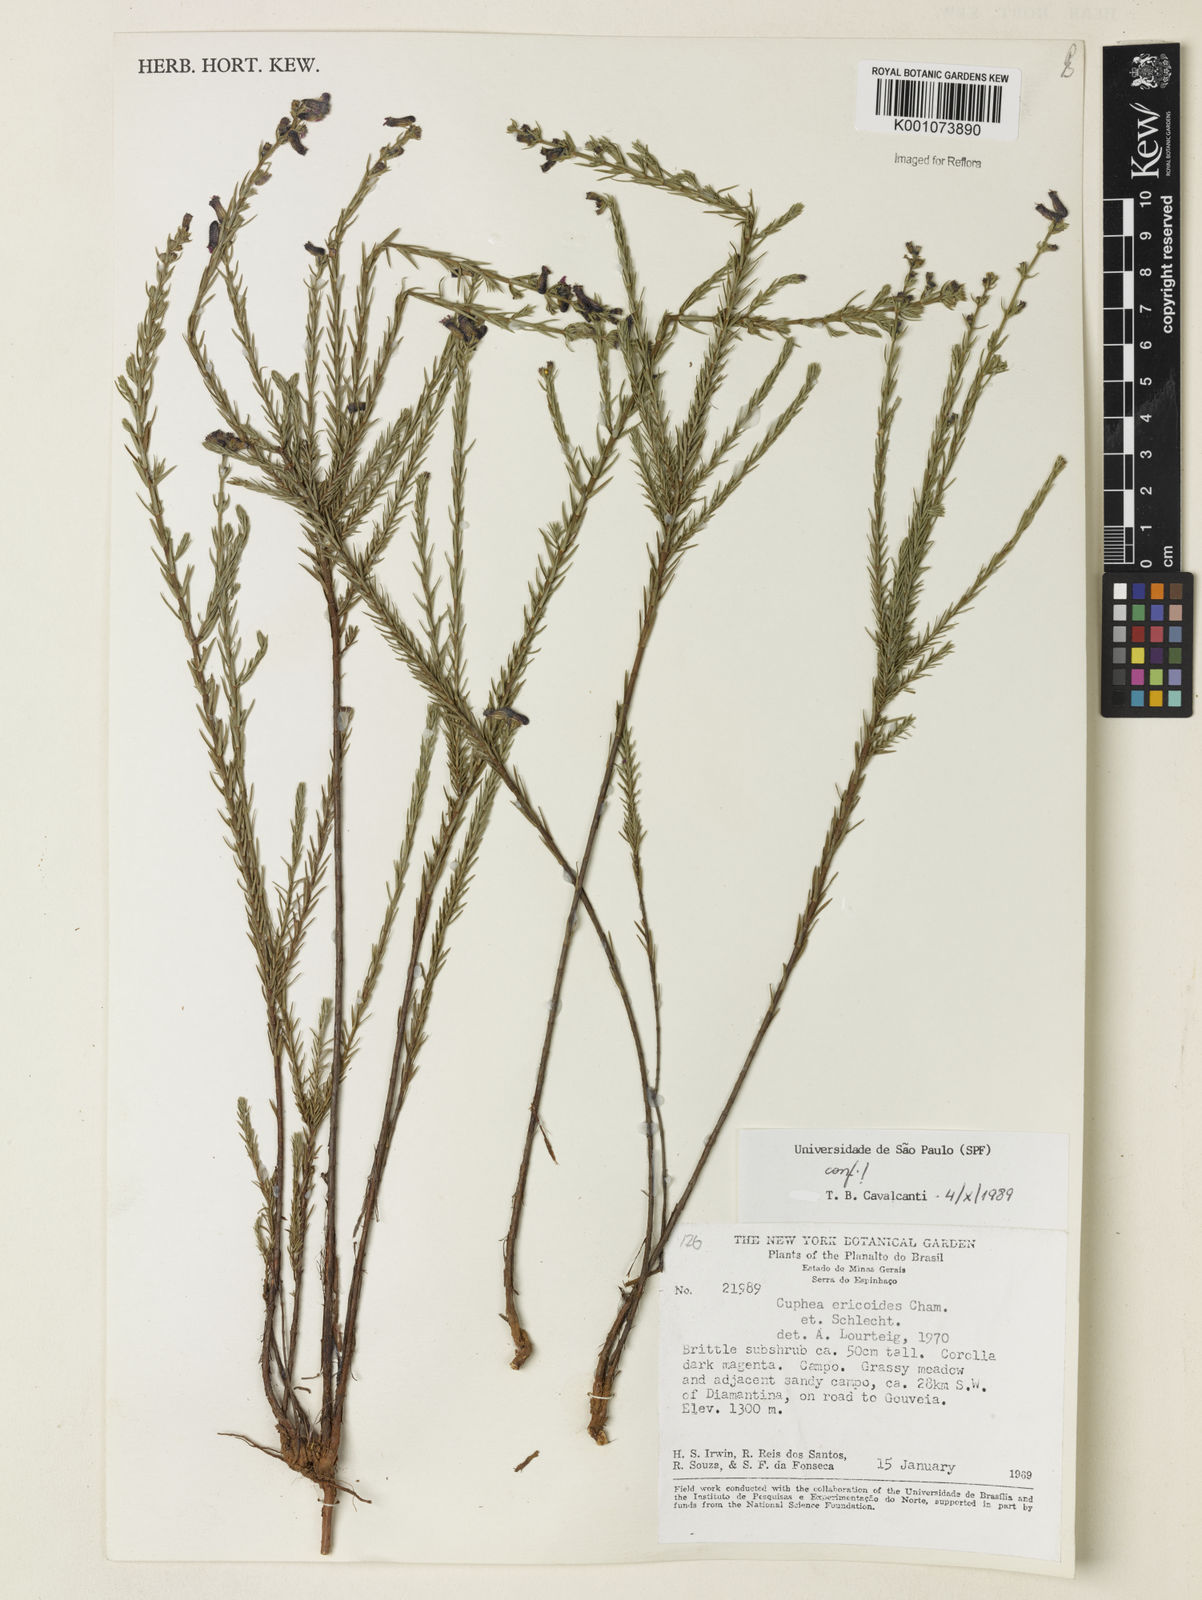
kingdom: Plantae
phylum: Tracheophyta
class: Magnoliopsida
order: Myrtales
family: Lythraceae
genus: Cuphea
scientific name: Cuphea ericoides
